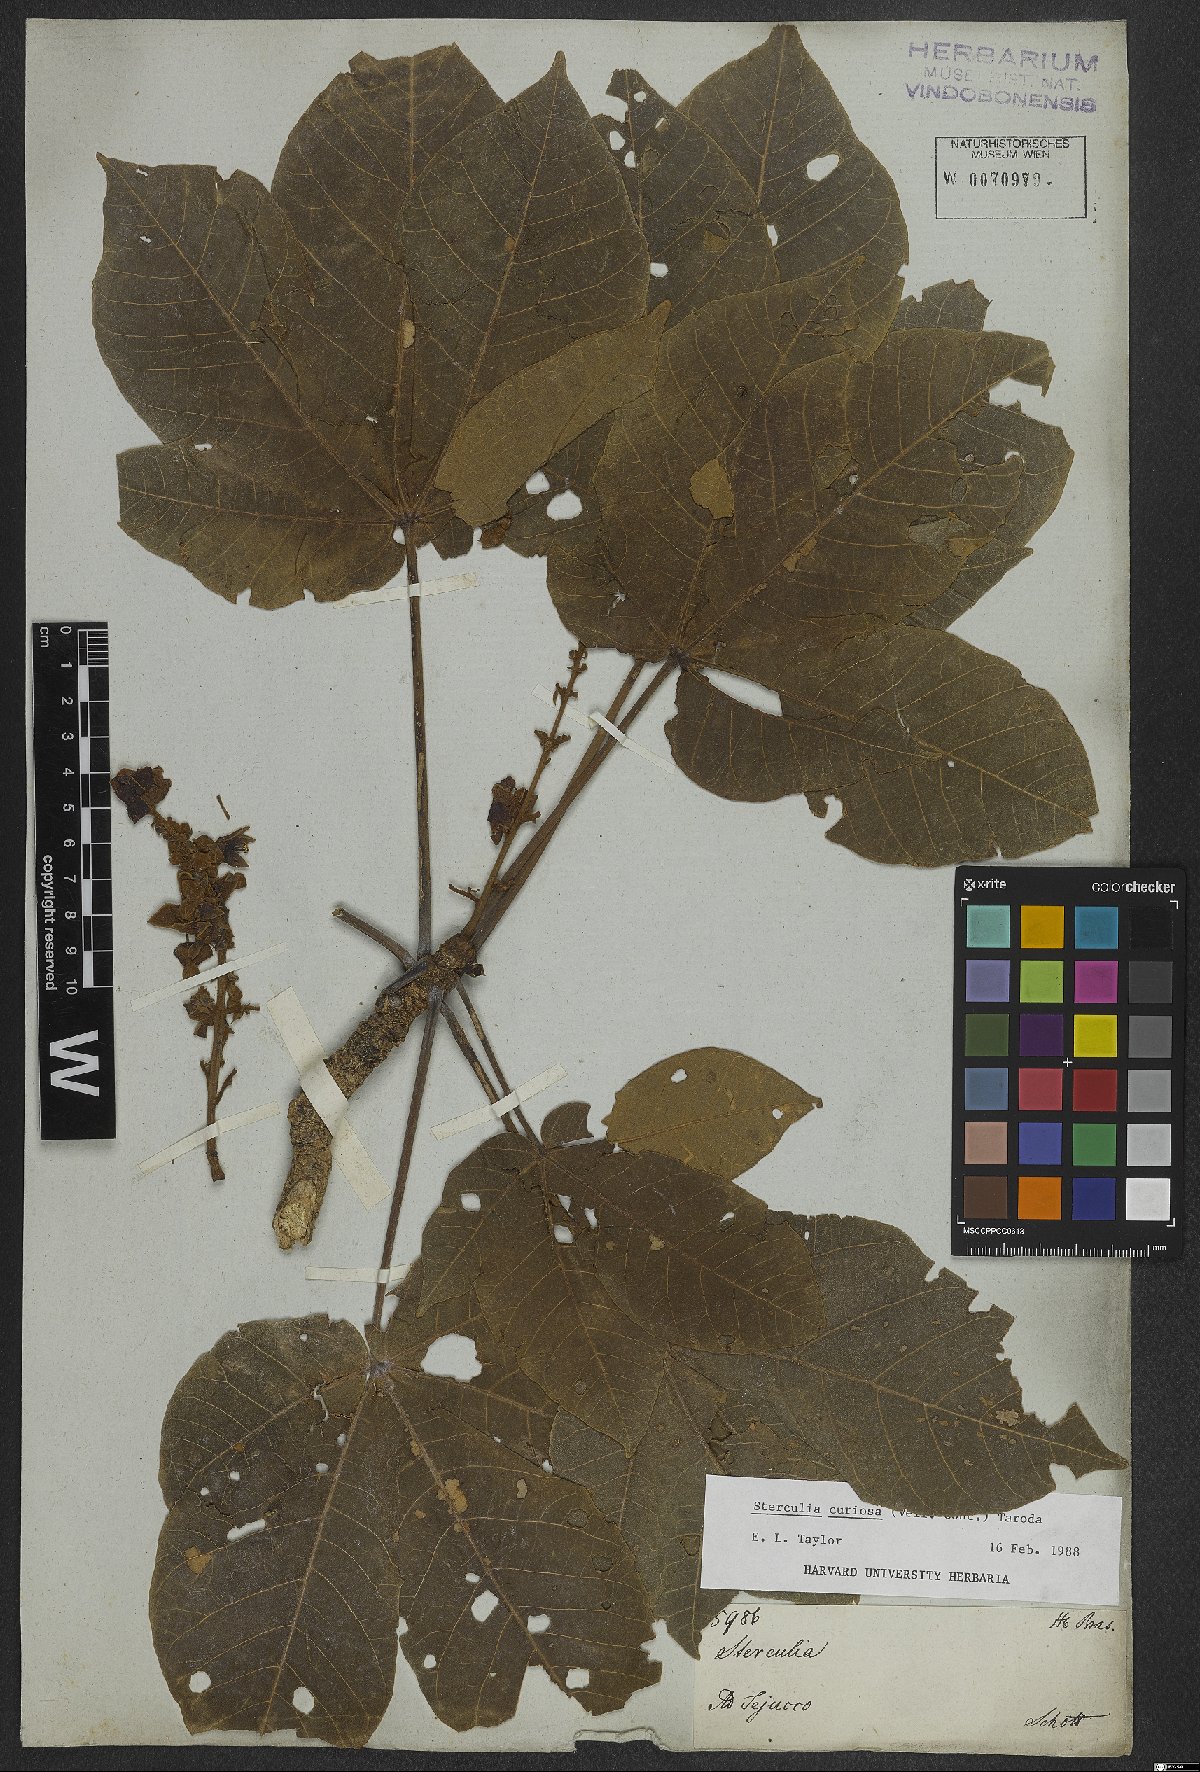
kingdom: Plantae
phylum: Tracheophyta
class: Magnoliopsida
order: Malvales
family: Malvaceae
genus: Sterculia
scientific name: Sterculia curiosa
